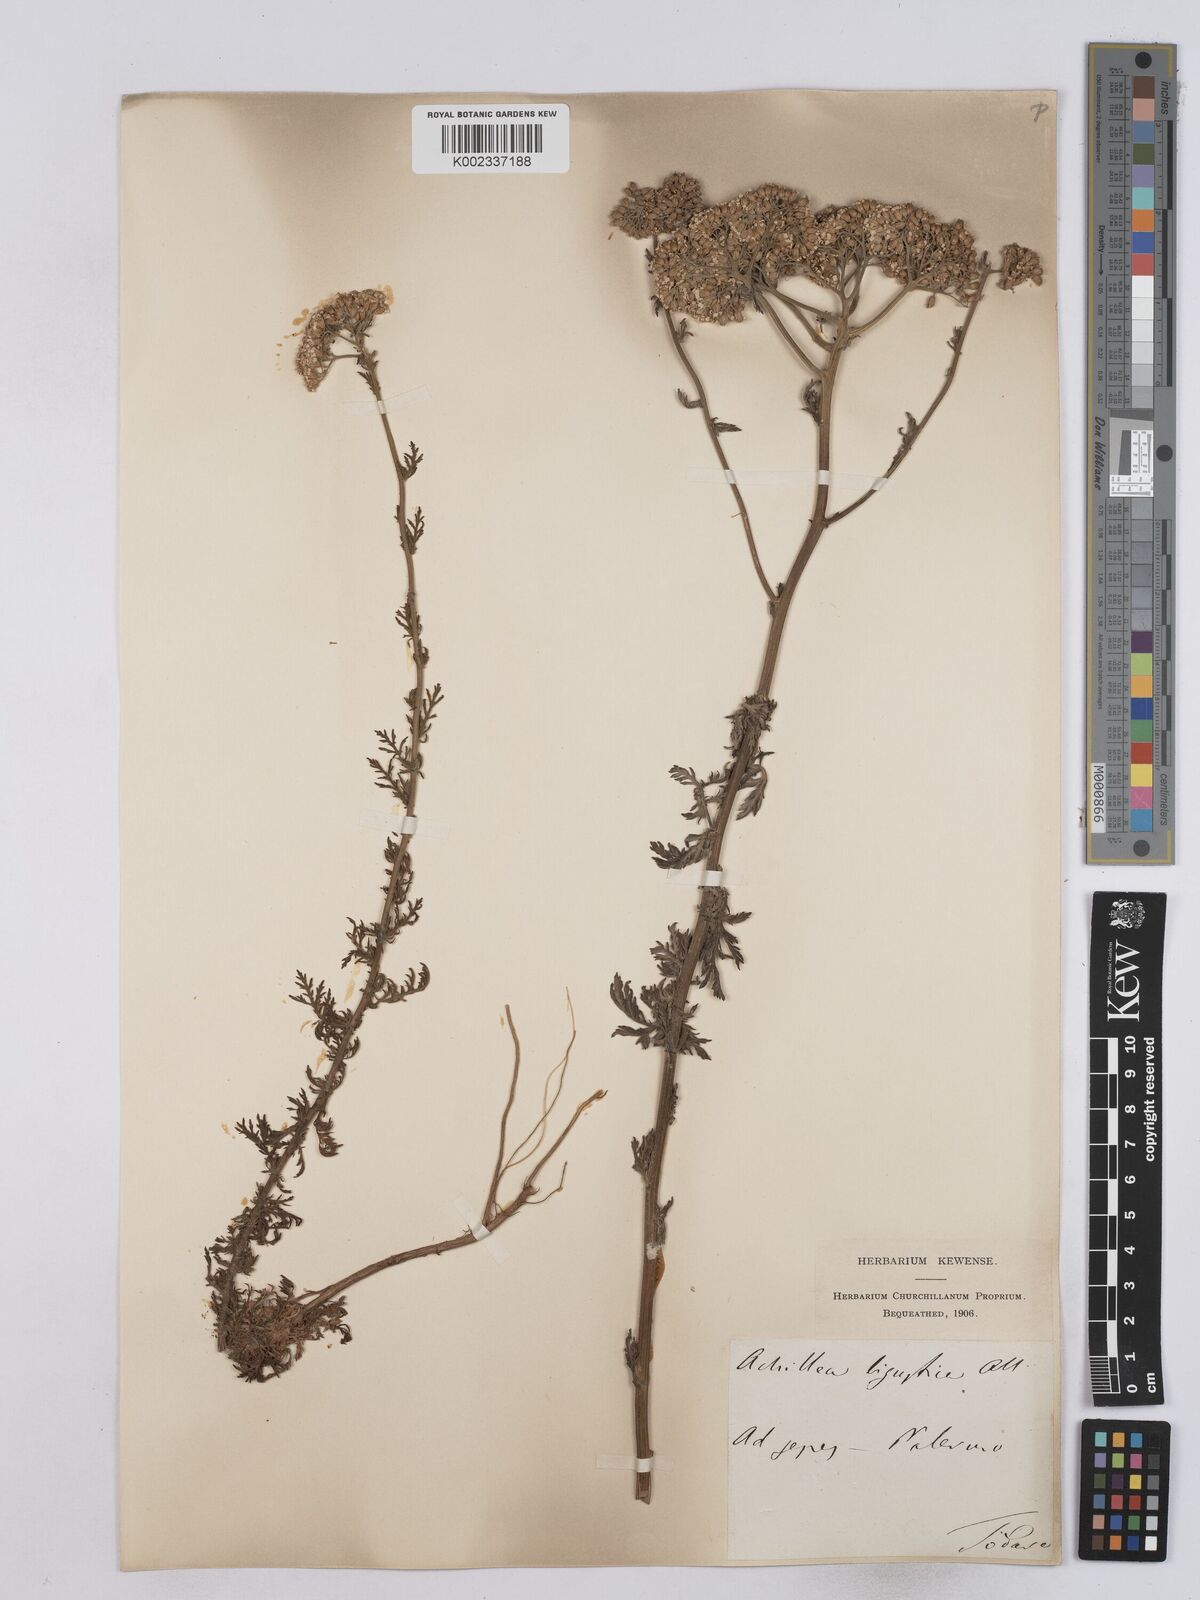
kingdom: Plantae
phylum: Tracheophyta
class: Magnoliopsida
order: Asterales
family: Asteraceae
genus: Achillea
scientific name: Achillea ligustica
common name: Southern yarrow
